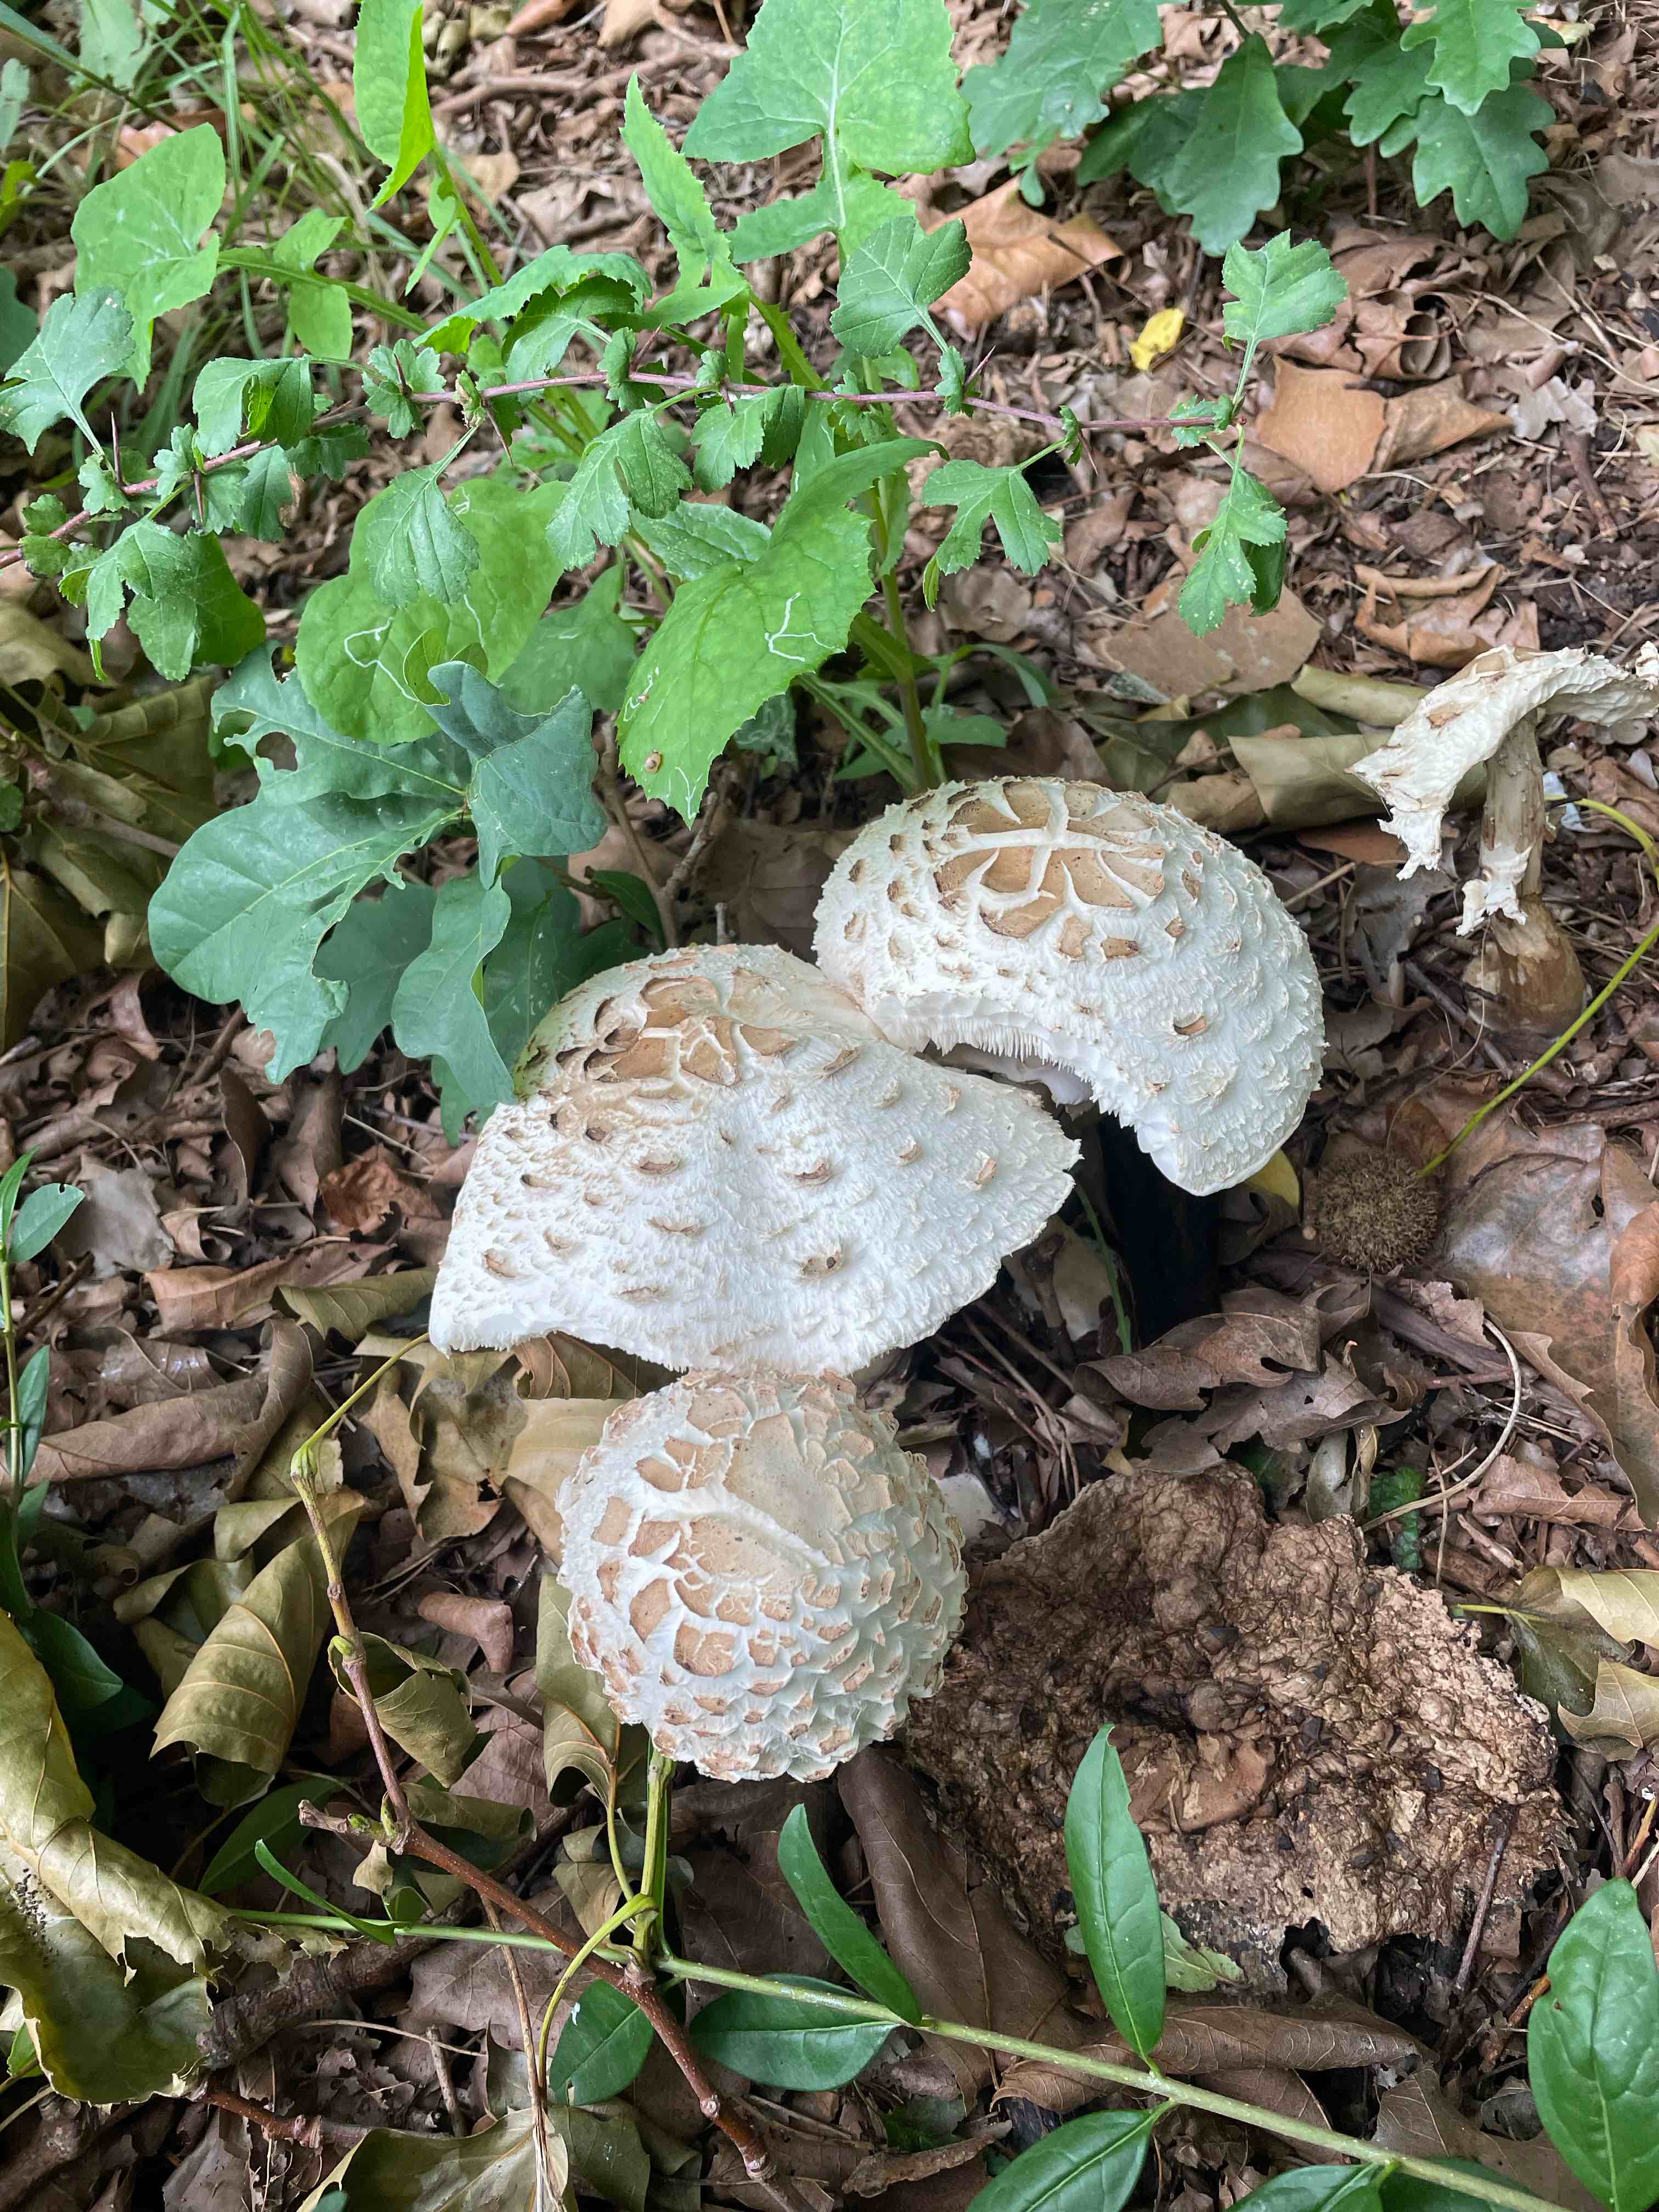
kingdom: Fungi
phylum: Basidiomycota
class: Agaricomycetes
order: Agaricales
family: Agaricaceae
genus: Chlorophyllum
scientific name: Chlorophyllum rhacodes
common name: ægte rabarberhat
